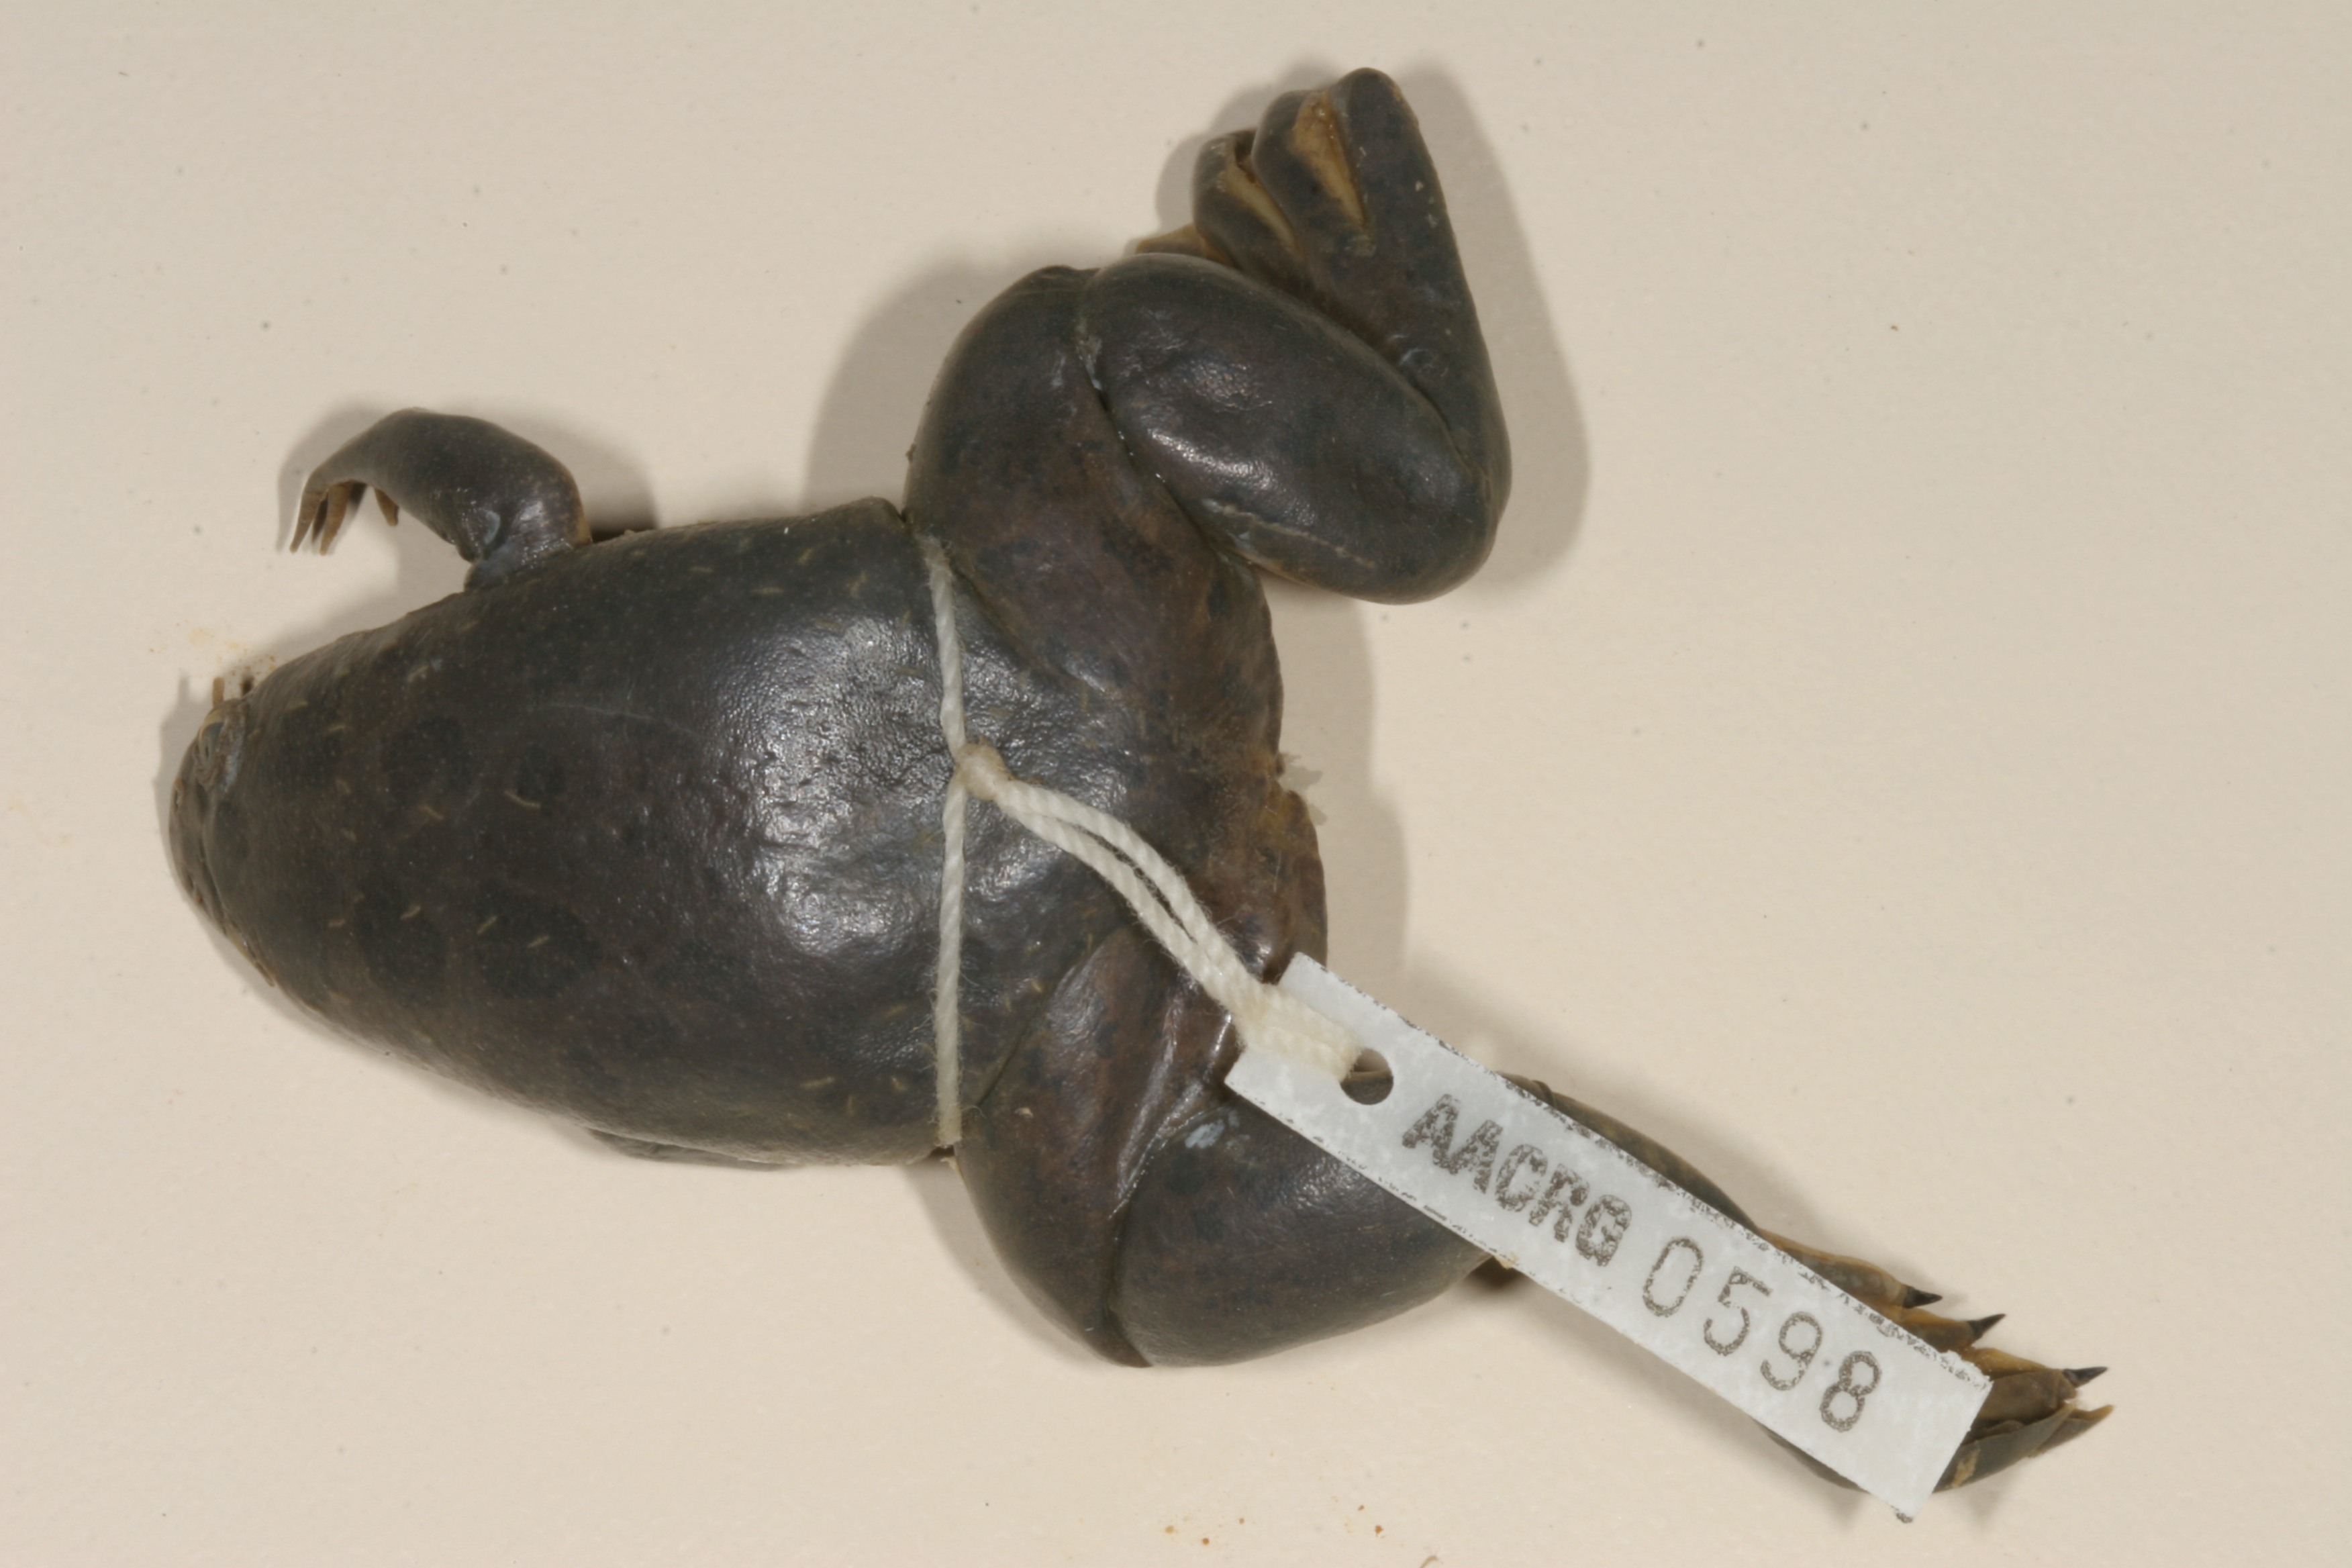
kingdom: Animalia
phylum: Chordata
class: Amphibia
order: Anura
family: Pipidae
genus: Xenopus
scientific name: Xenopus muelleri
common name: Muller's clawed frog
